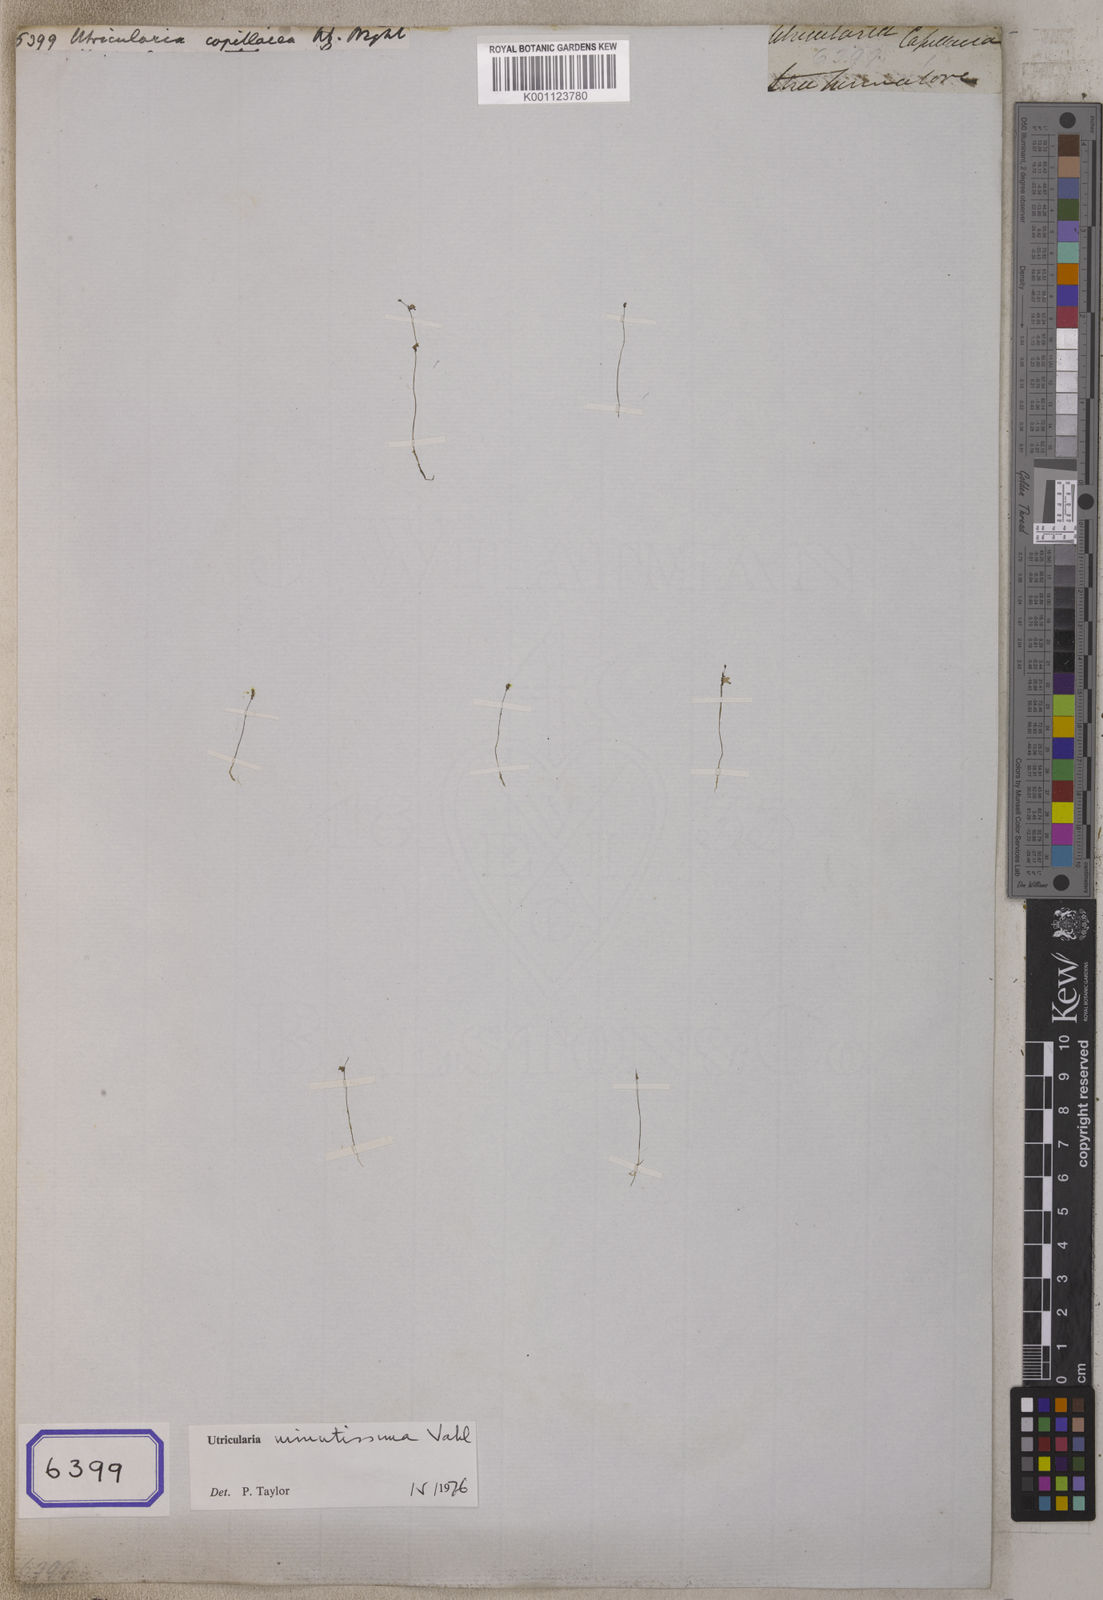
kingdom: Plantae
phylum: Tracheophyta
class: Magnoliopsida
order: Lamiales
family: Lentibulariaceae
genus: Utricularia
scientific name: Utricularia
